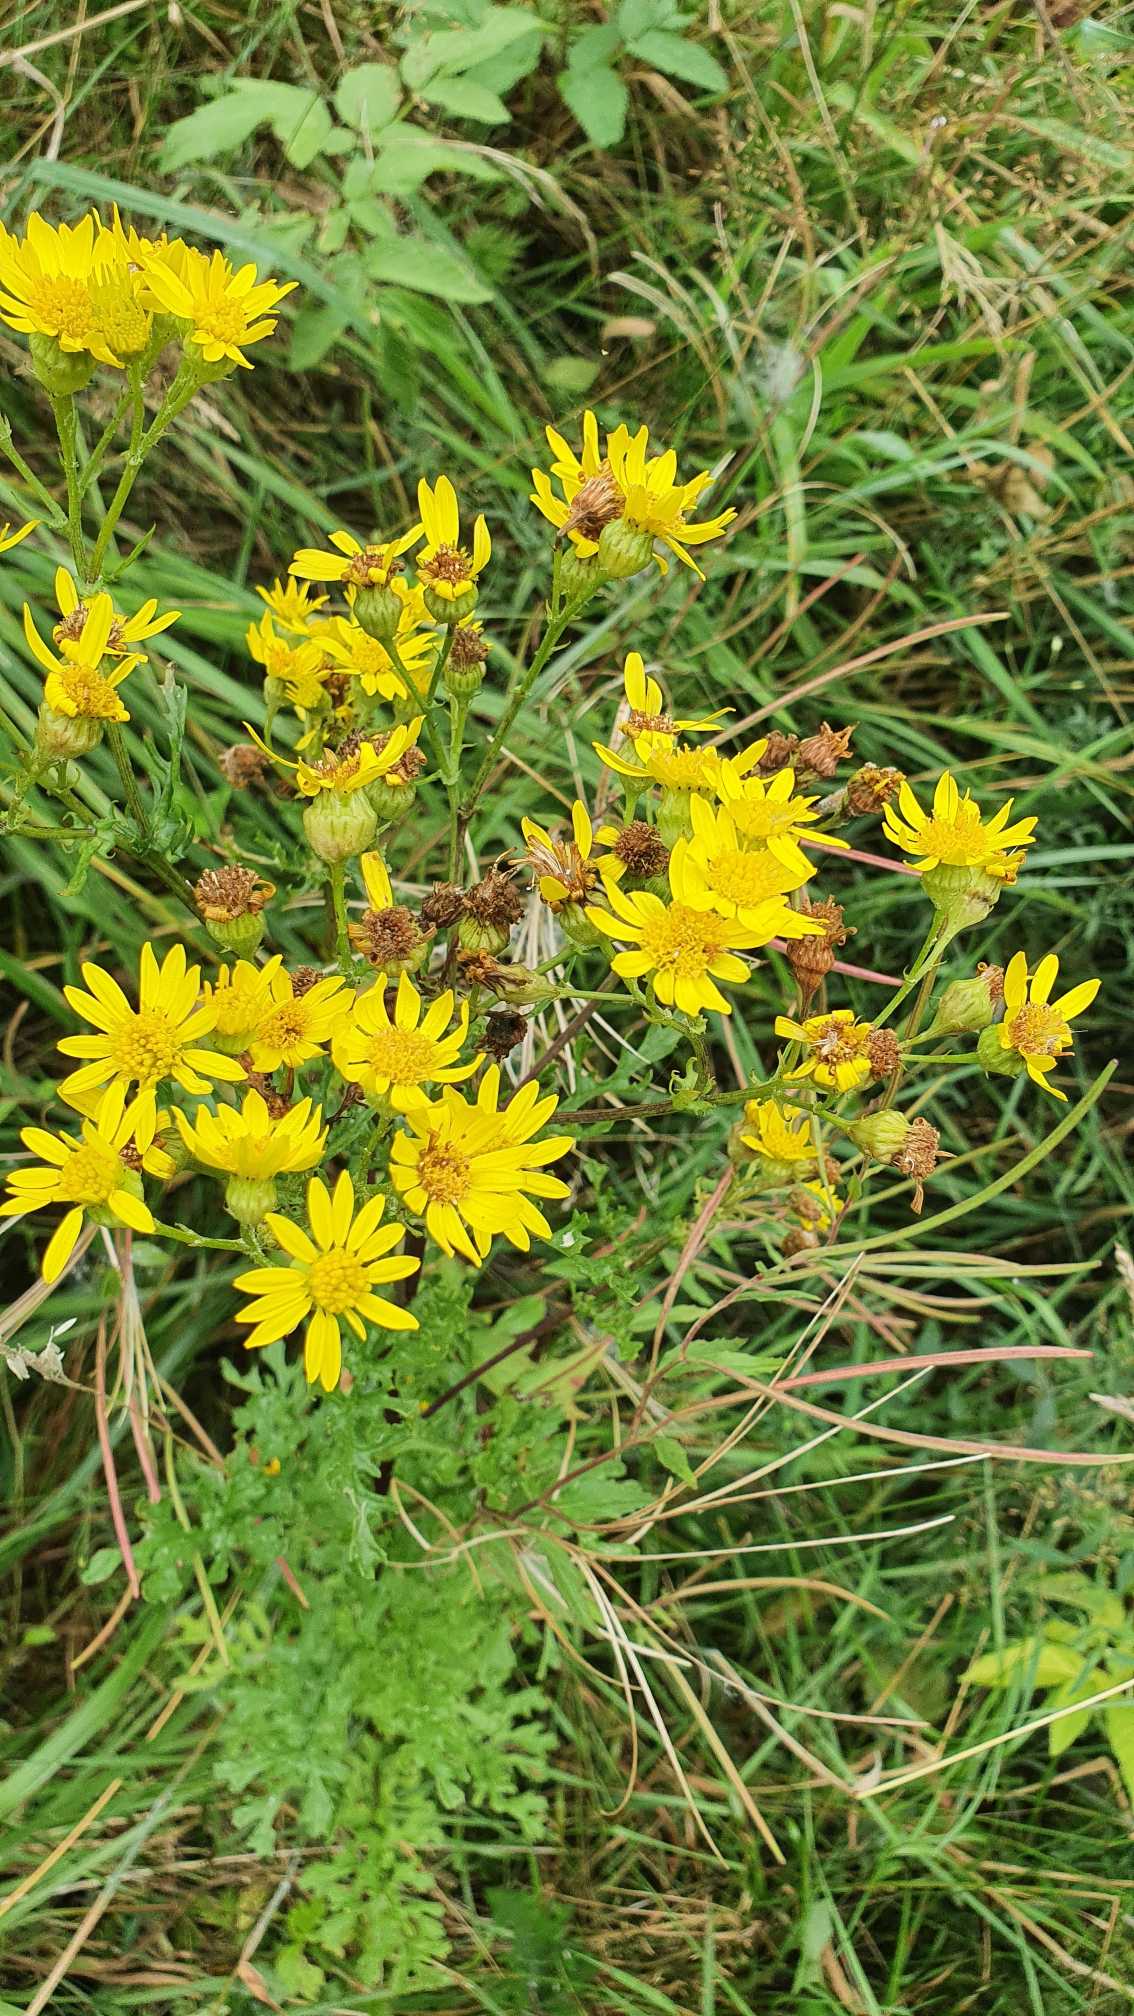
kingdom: Plantae
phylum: Tracheophyta
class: Magnoliopsida
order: Asterales
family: Asteraceae
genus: Jacobaea
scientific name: Jacobaea vulgaris
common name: Eng-brandbæger
